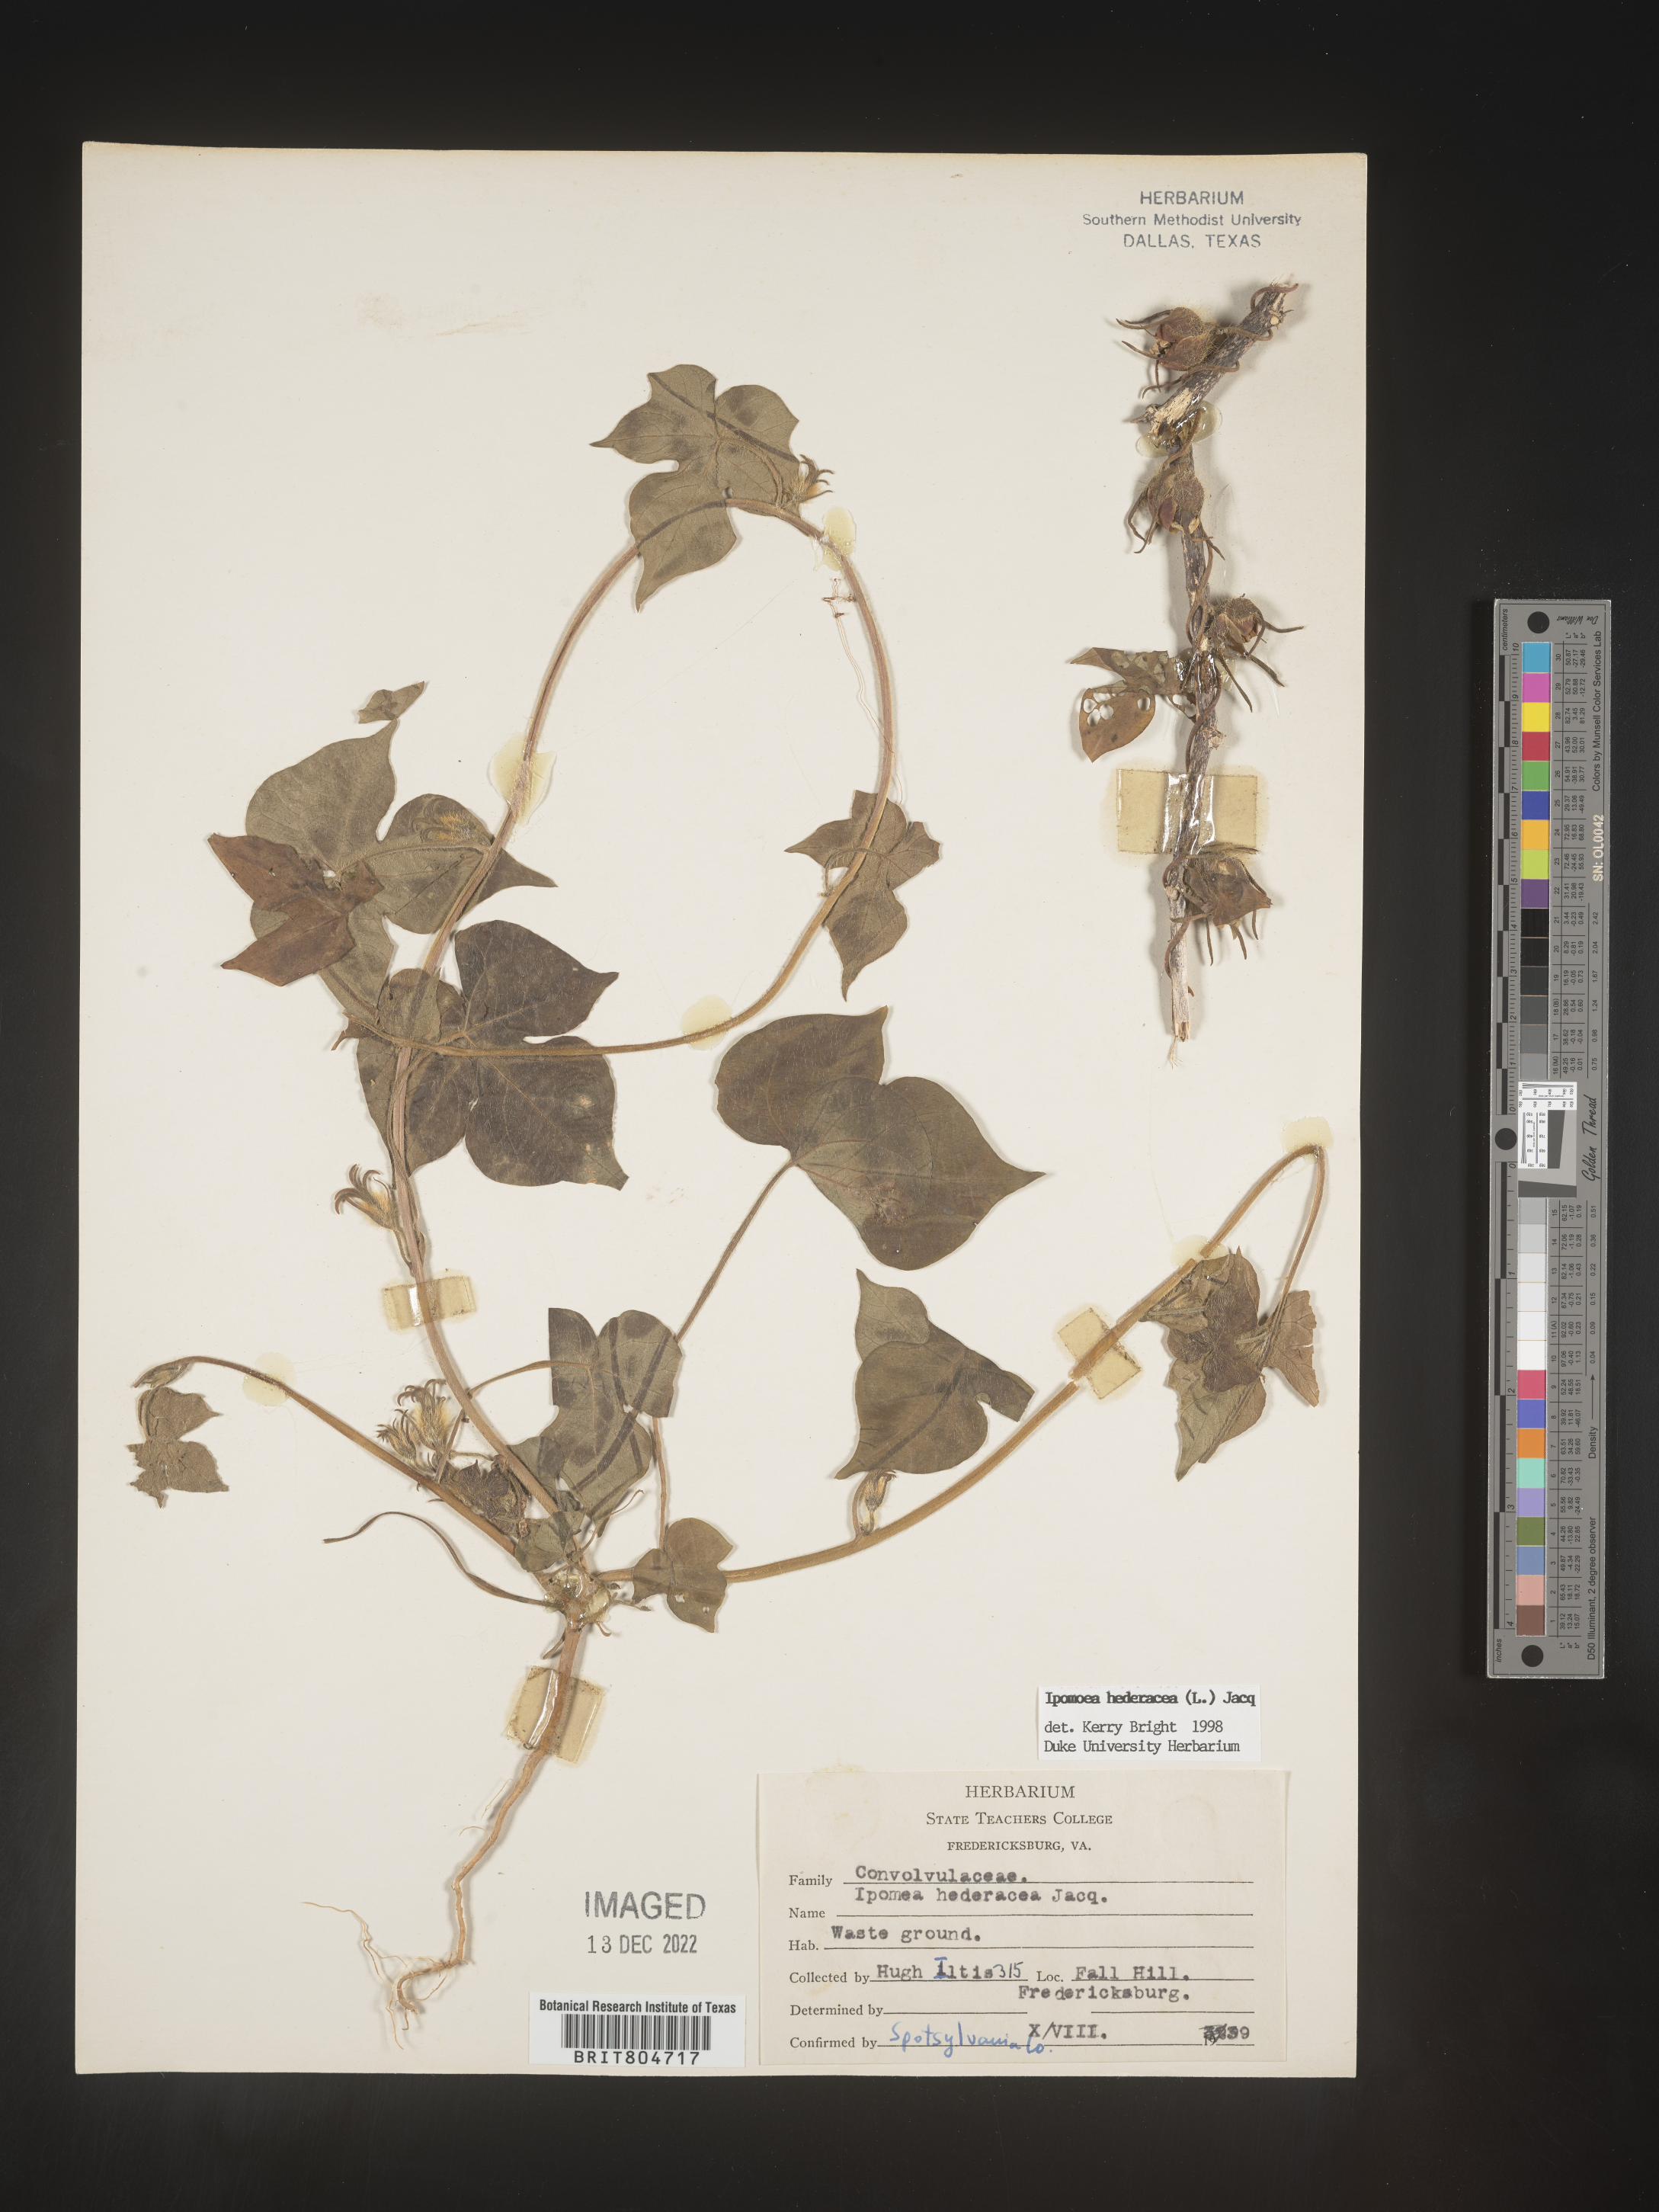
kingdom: Plantae
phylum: Tracheophyta
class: Magnoliopsida
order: Solanales
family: Convolvulaceae
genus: Ipomoea
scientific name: Ipomoea hederacea
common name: Ivy-leaved morning-glory
